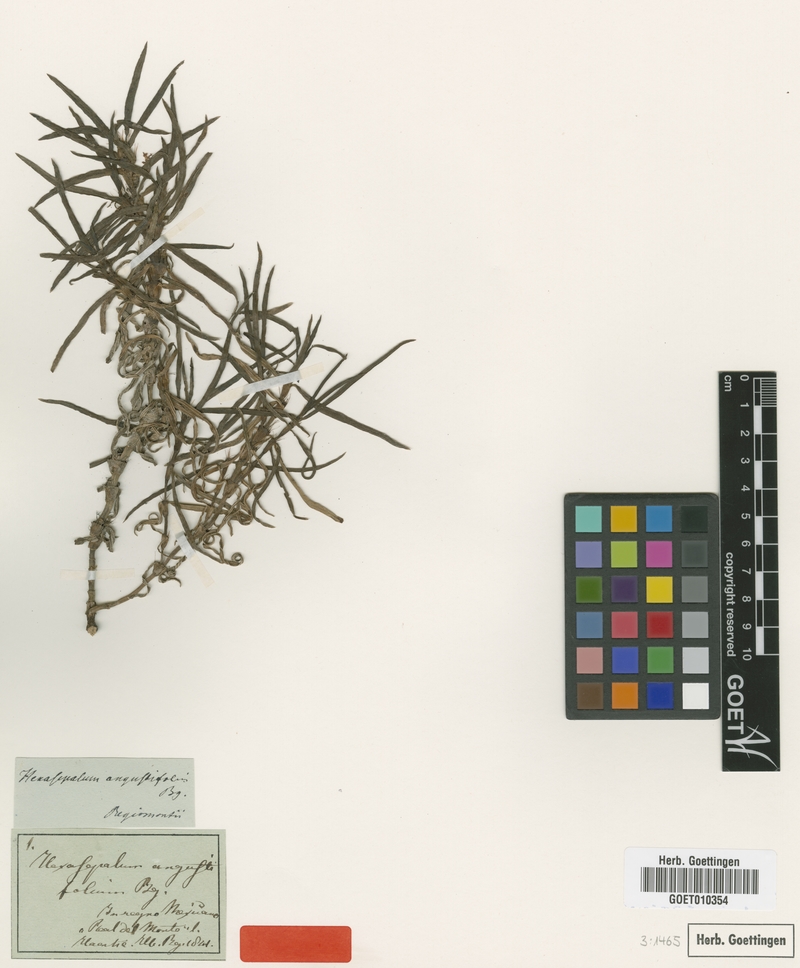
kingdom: Plantae
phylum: Tracheophyta
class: Magnoliopsida
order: Gentianales
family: Rubiaceae
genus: Hexasepalum
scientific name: Hexasepalum angustifolium
